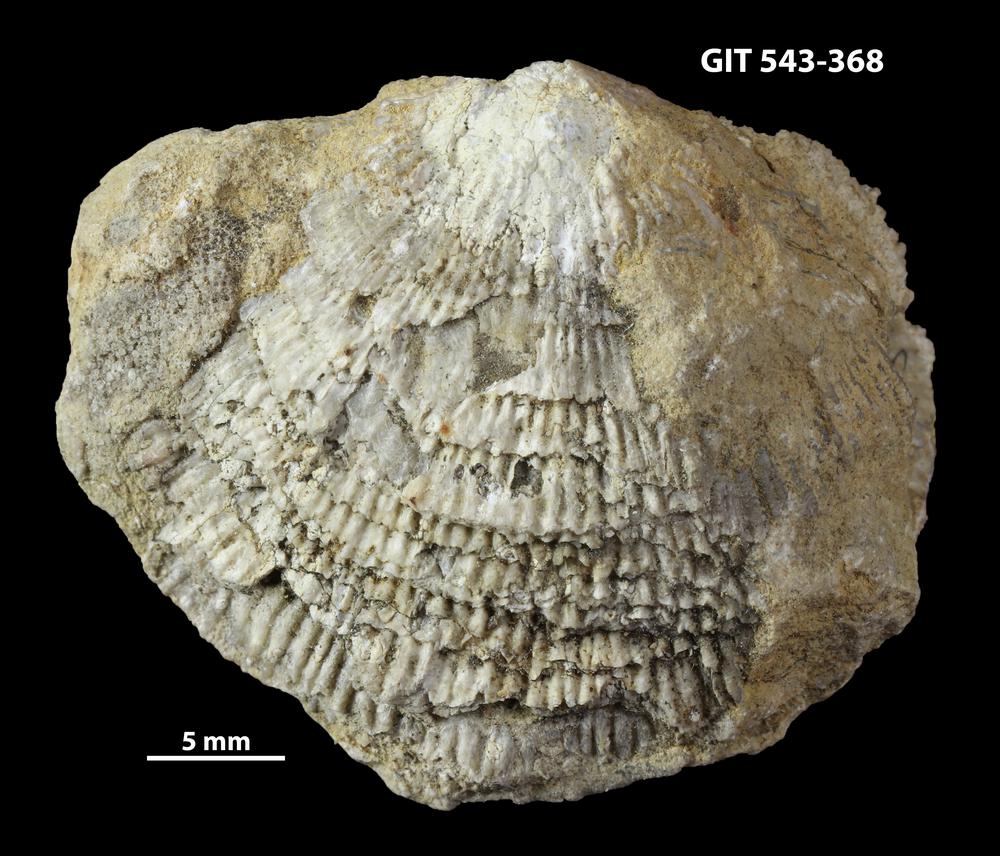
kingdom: Animalia
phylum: Brachiopoda
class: Rhynchonellata
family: Clitambonitidae
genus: Clitambonites
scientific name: Clitambonites Orthisina schmidti
